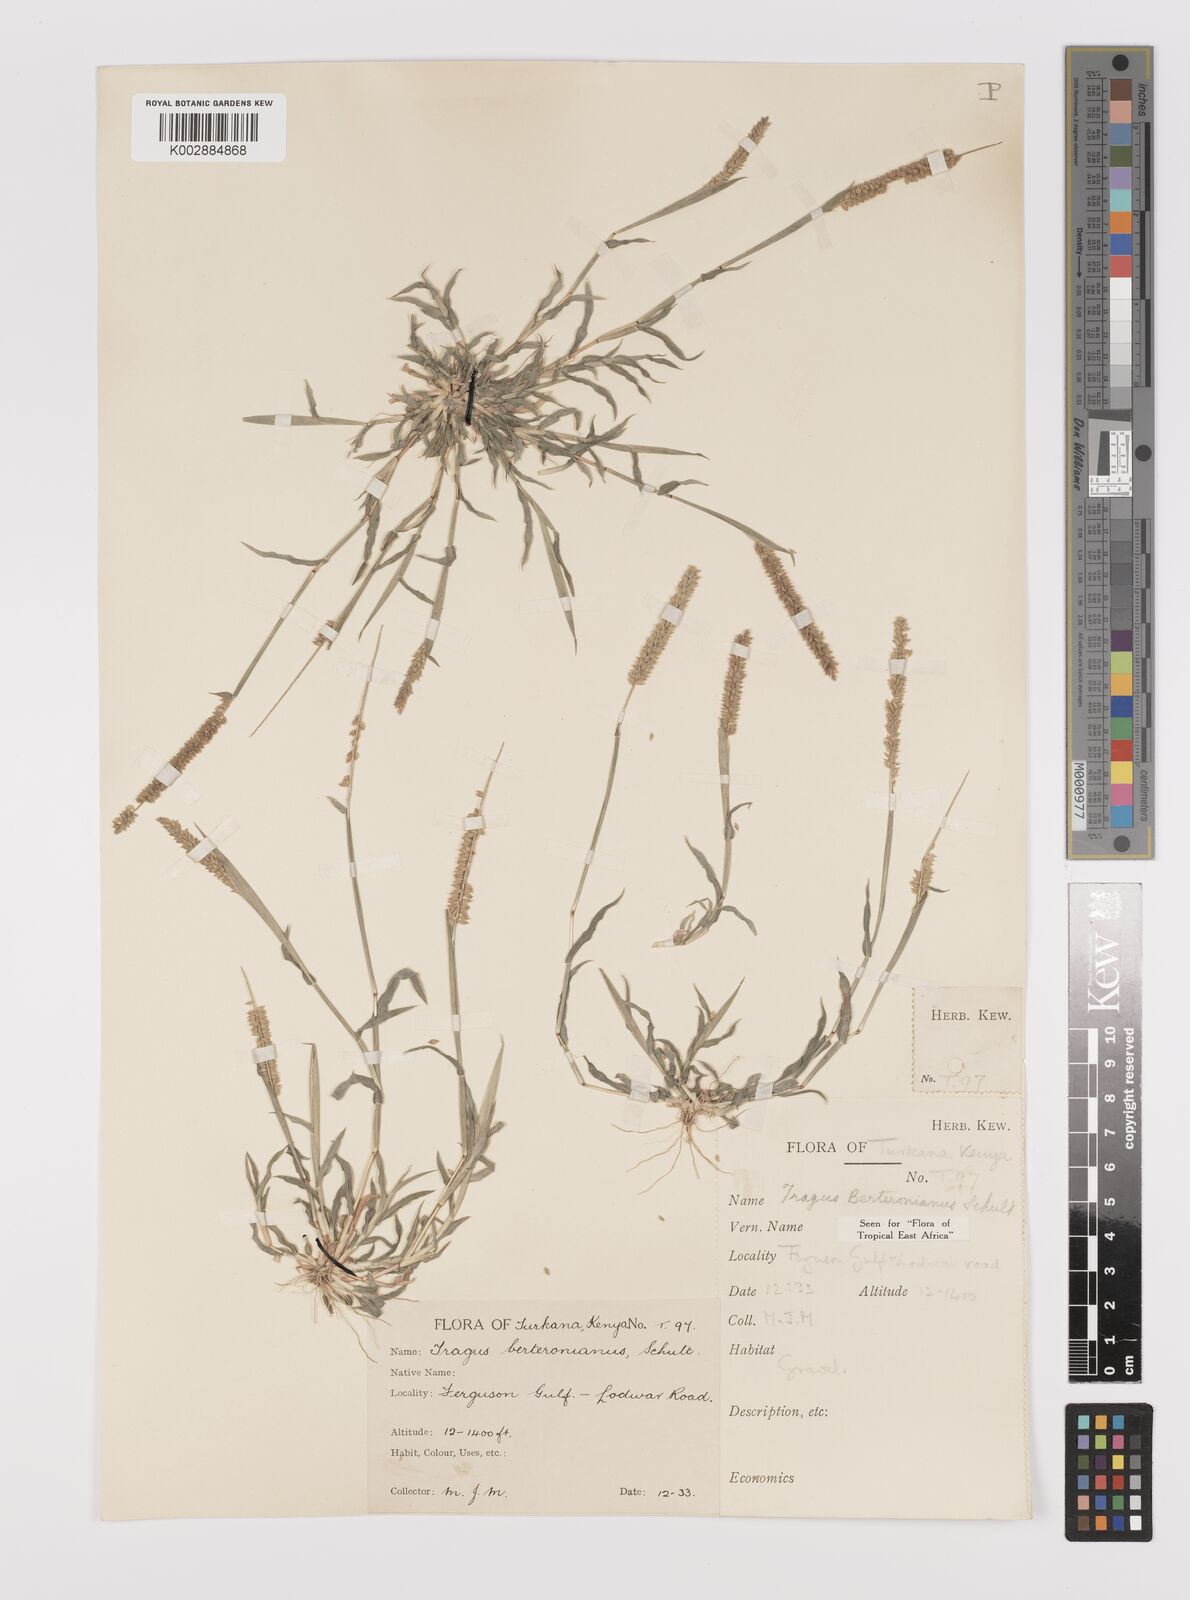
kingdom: Plantae
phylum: Tracheophyta
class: Liliopsida
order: Poales
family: Poaceae
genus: Tragus
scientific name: Tragus berteronianus
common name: African bur-grass
